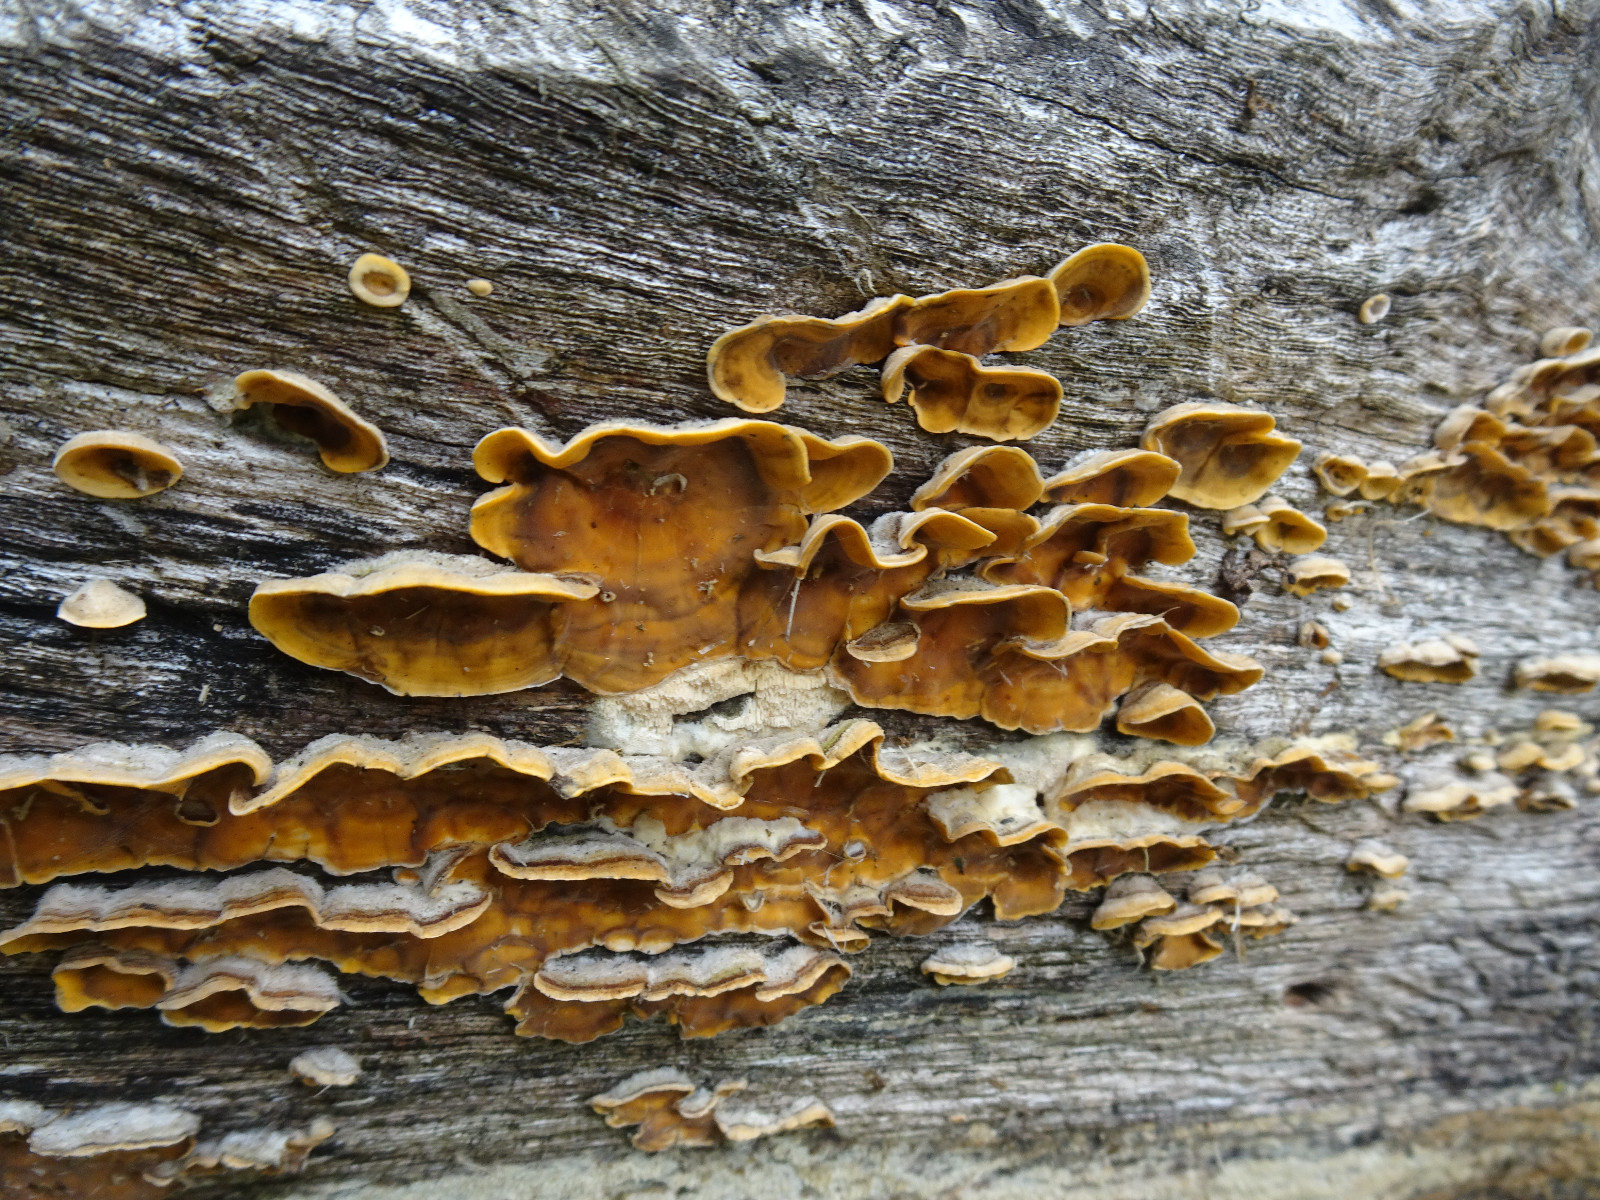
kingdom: Fungi
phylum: Basidiomycota
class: Agaricomycetes
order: Russulales
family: Stereaceae
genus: Stereum
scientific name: Stereum hirsutum
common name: håret lædersvamp
